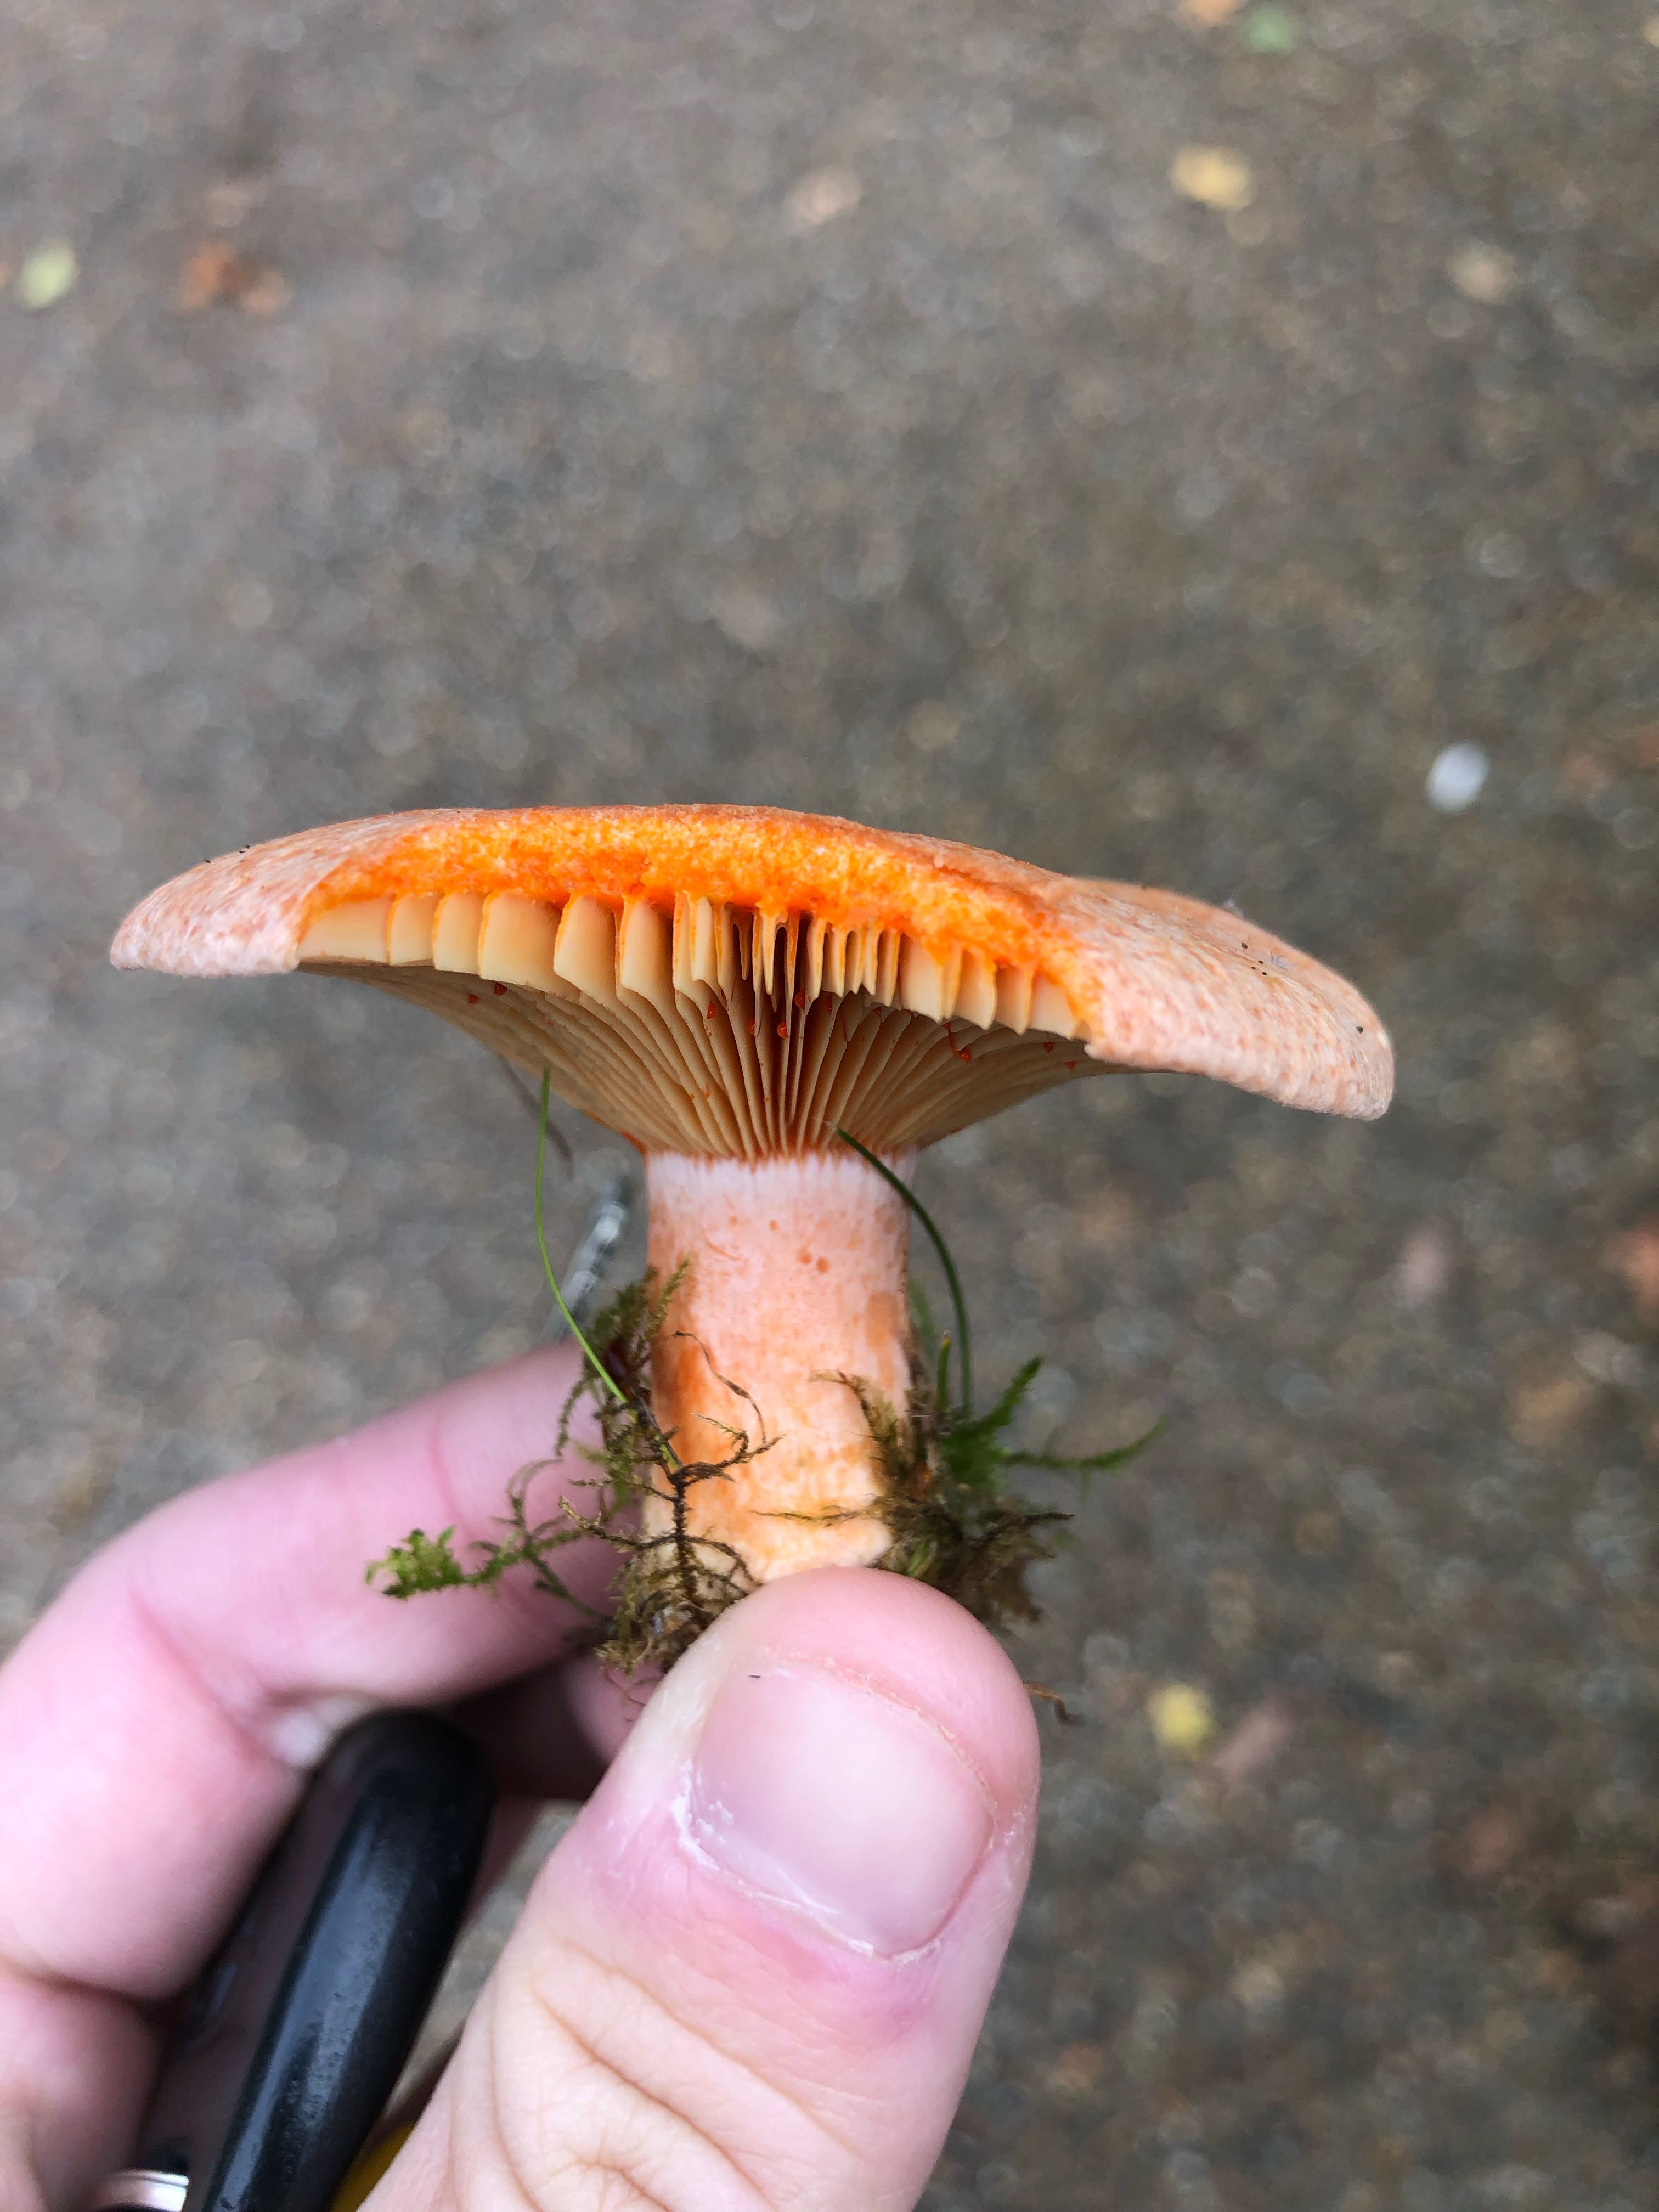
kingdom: Fungi
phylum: Basidiomycota
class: Agaricomycetes
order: Russulales
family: Russulaceae
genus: Lactarius
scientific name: Lactarius deterrimus
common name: gran-mælkehat
